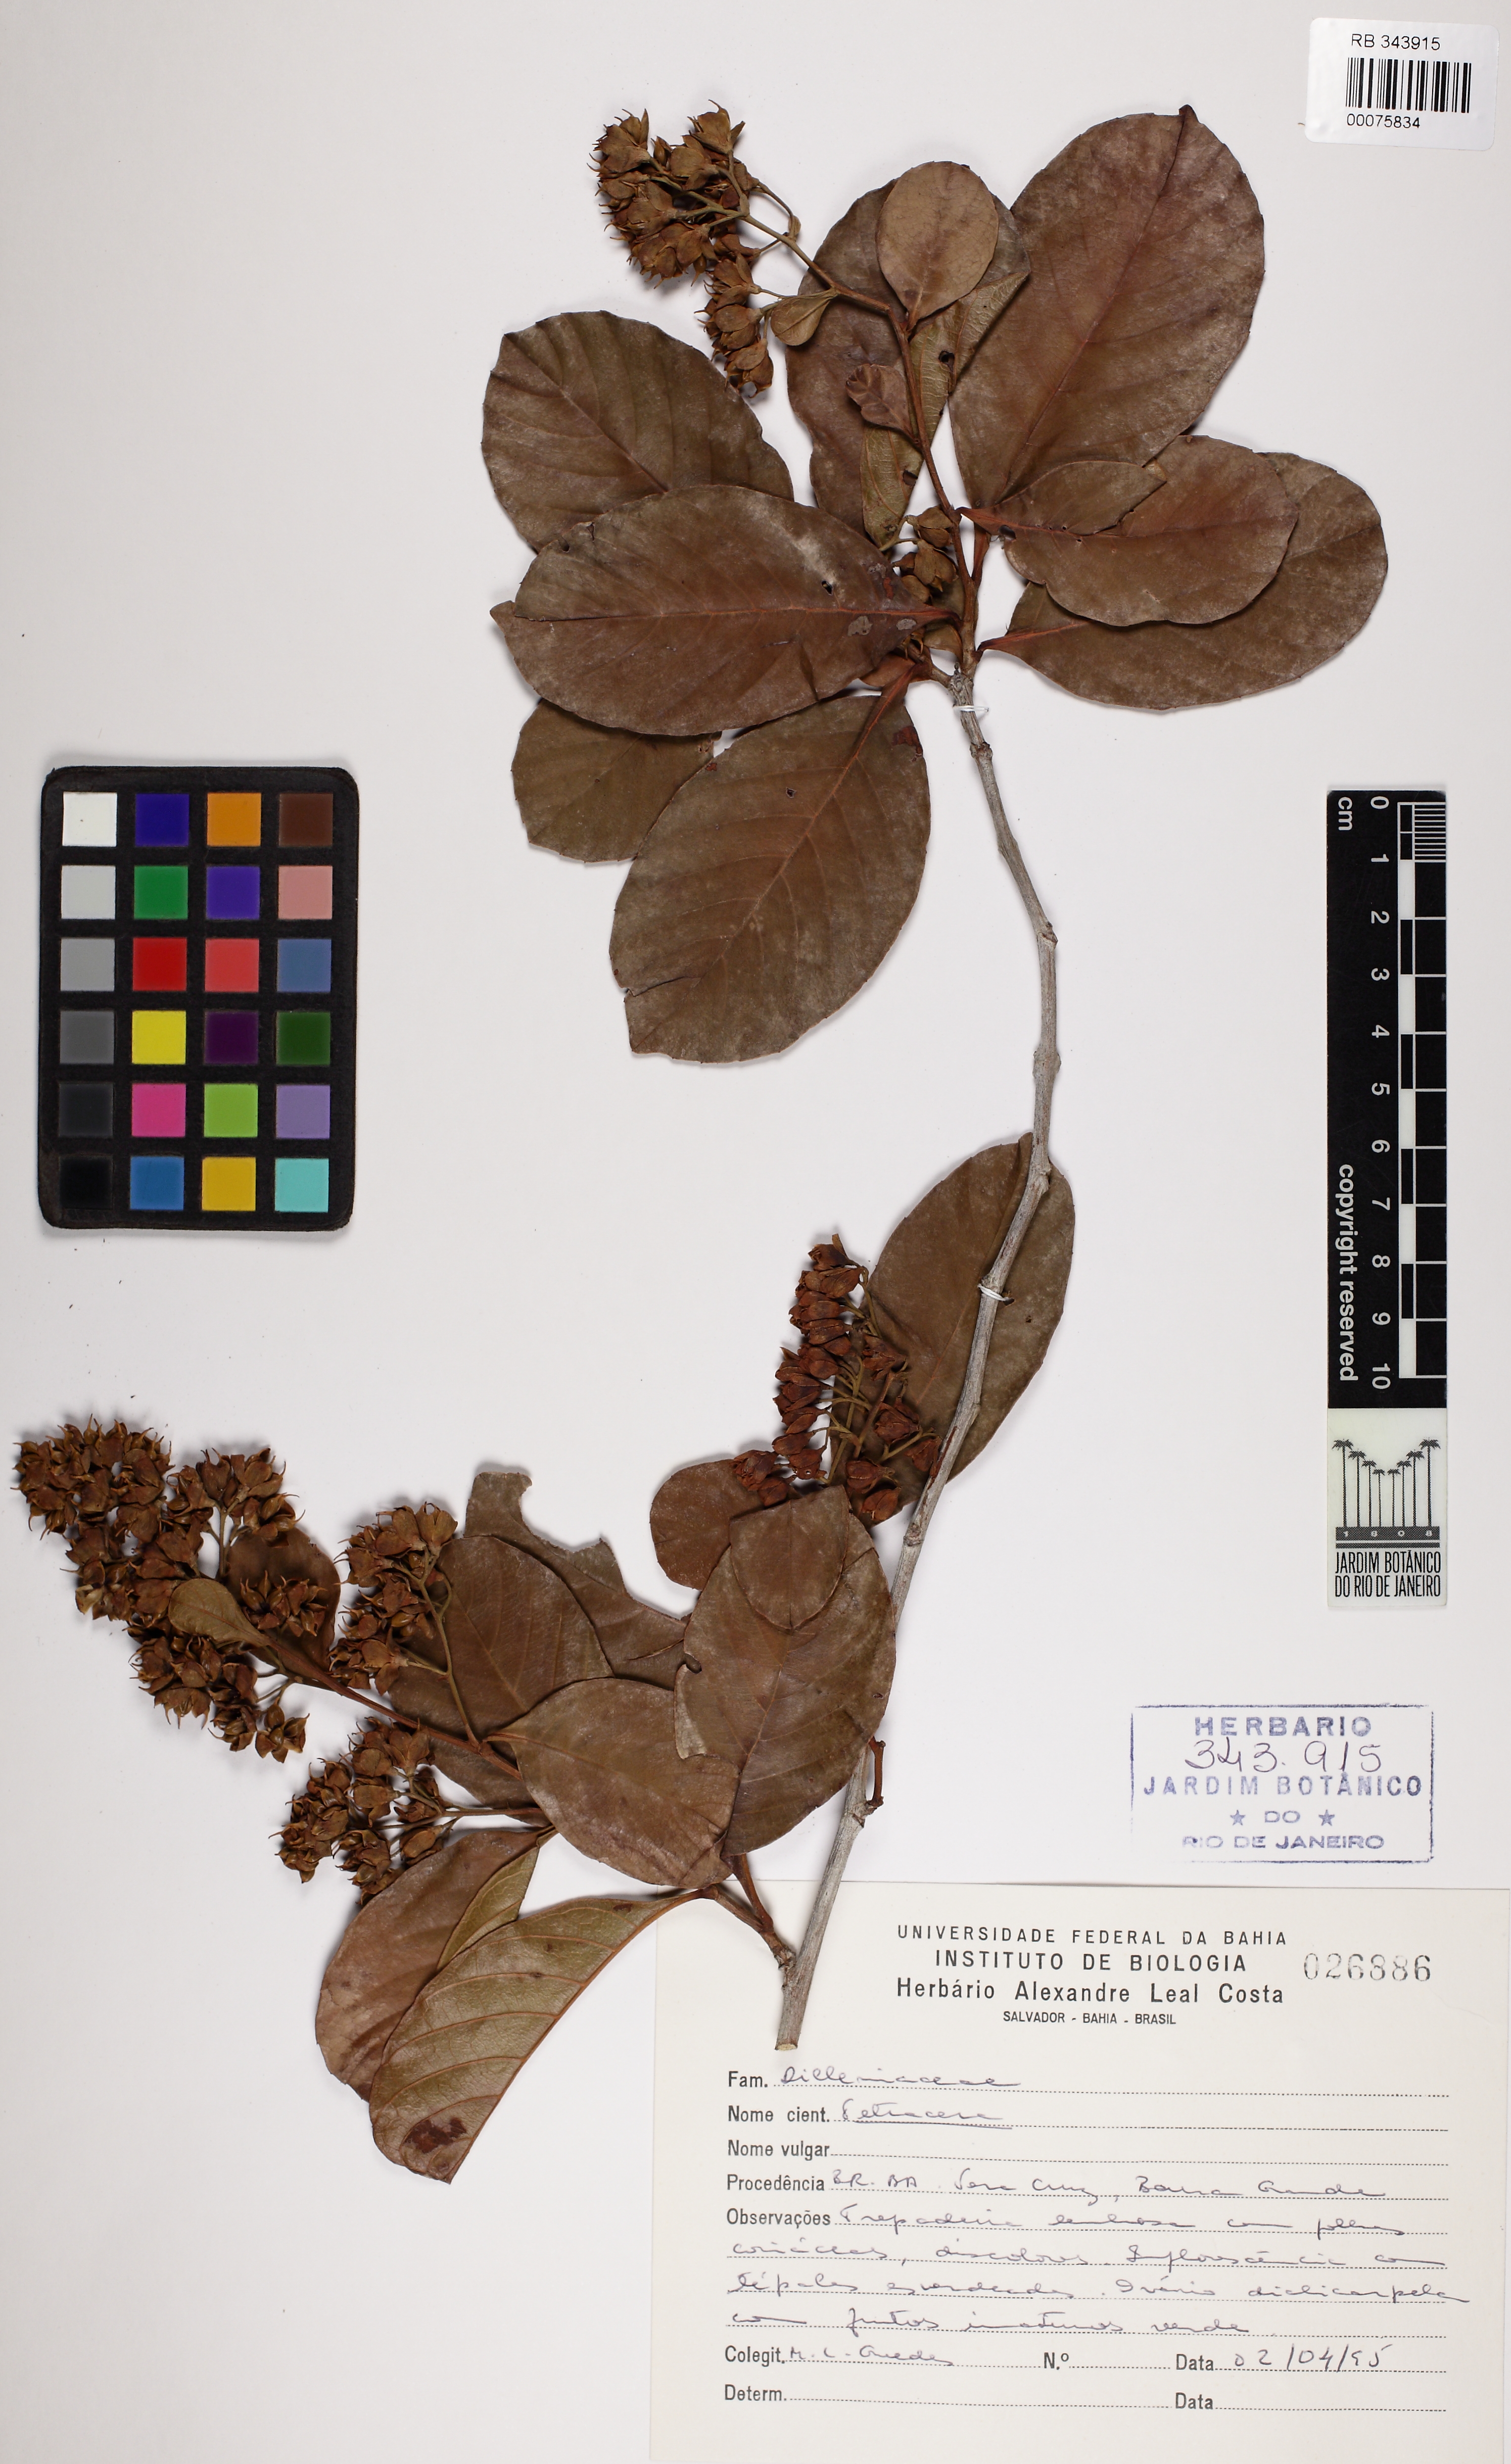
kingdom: Plantae
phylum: Tracheophyta
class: Magnoliopsida
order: Dilleniales
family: Dilleniaceae
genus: Tetracera
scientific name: Tetracera
